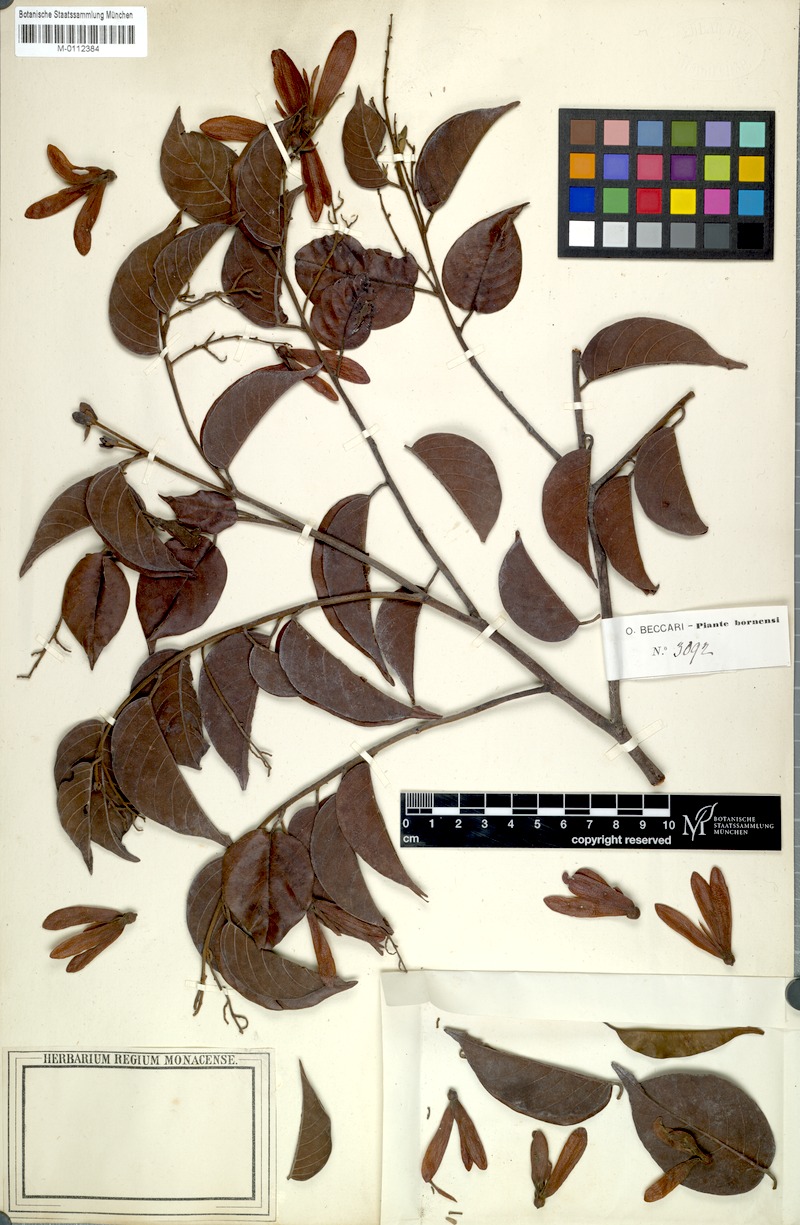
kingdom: Plantae
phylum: Tracheophyta
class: Magnoliopsida
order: Malvales
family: Dipterocarpaceae
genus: Shorea
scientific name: Shorea
